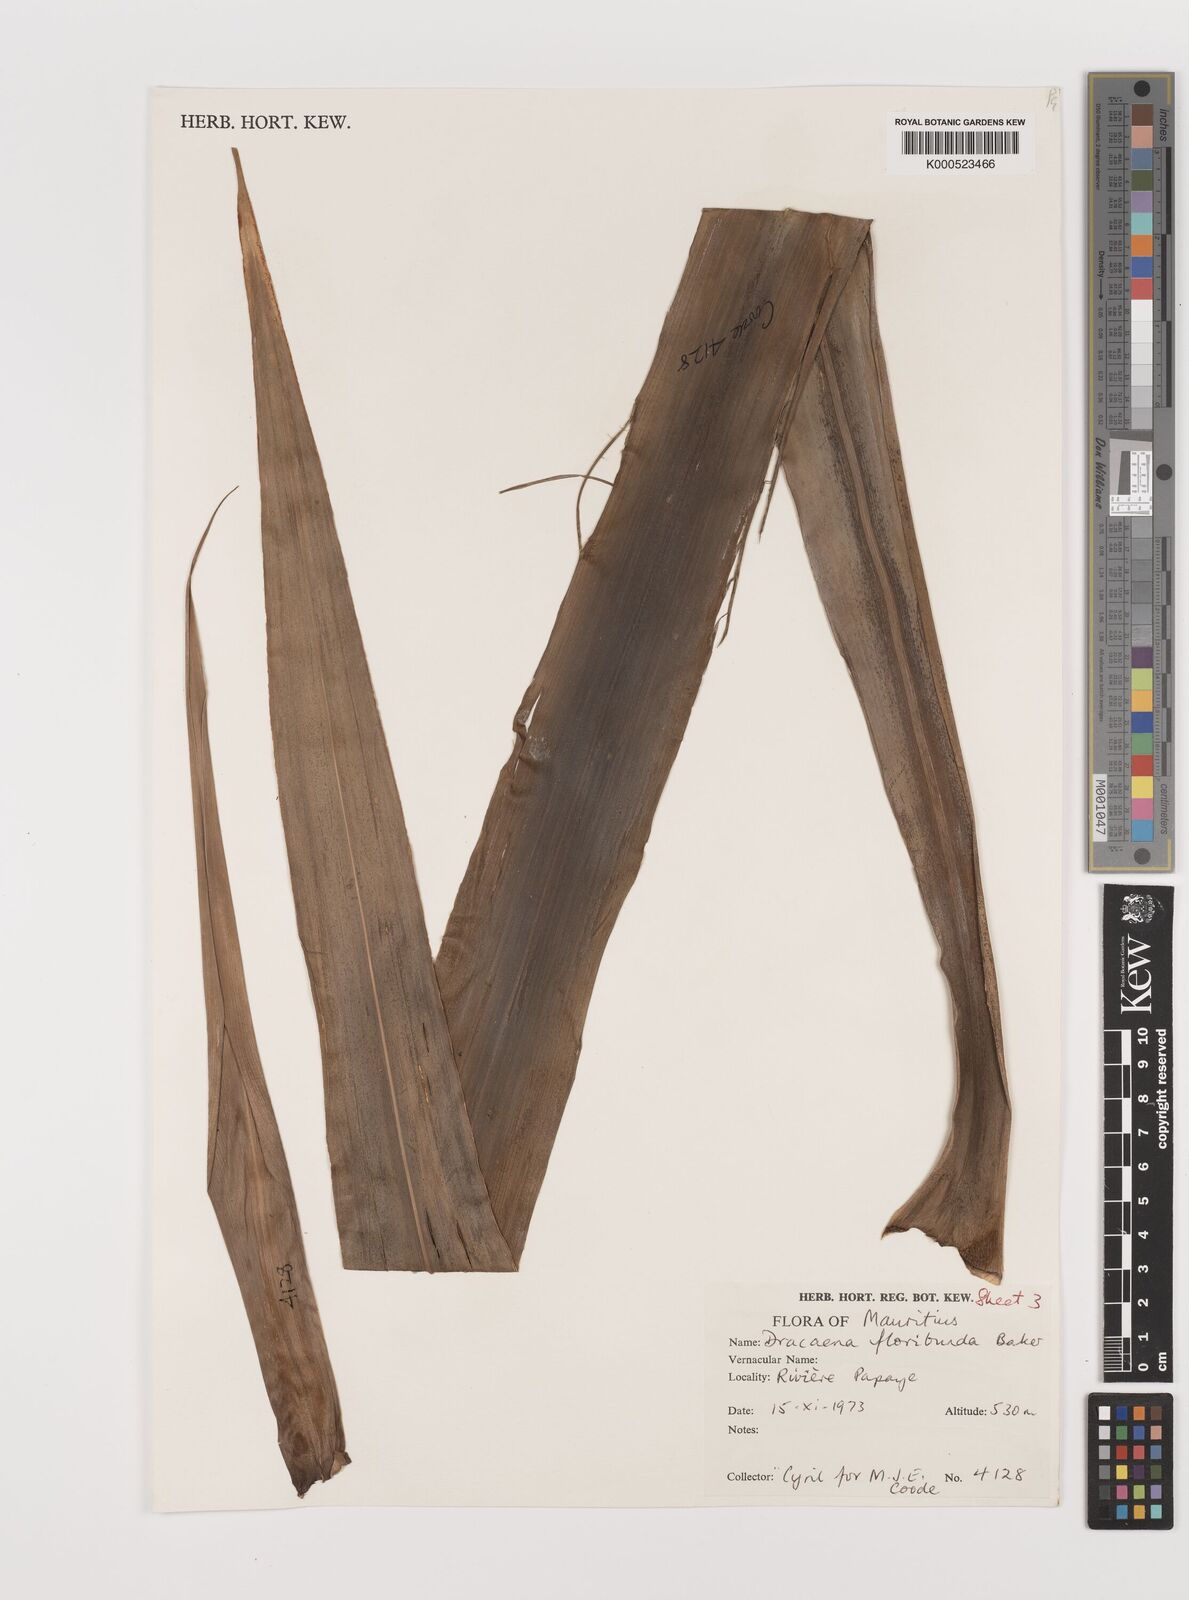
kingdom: Plantae
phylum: Tracheophyta
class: Liliopsida
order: Asparagales
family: Asparagaceae
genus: Dracaena
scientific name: Dracaena floribunda
